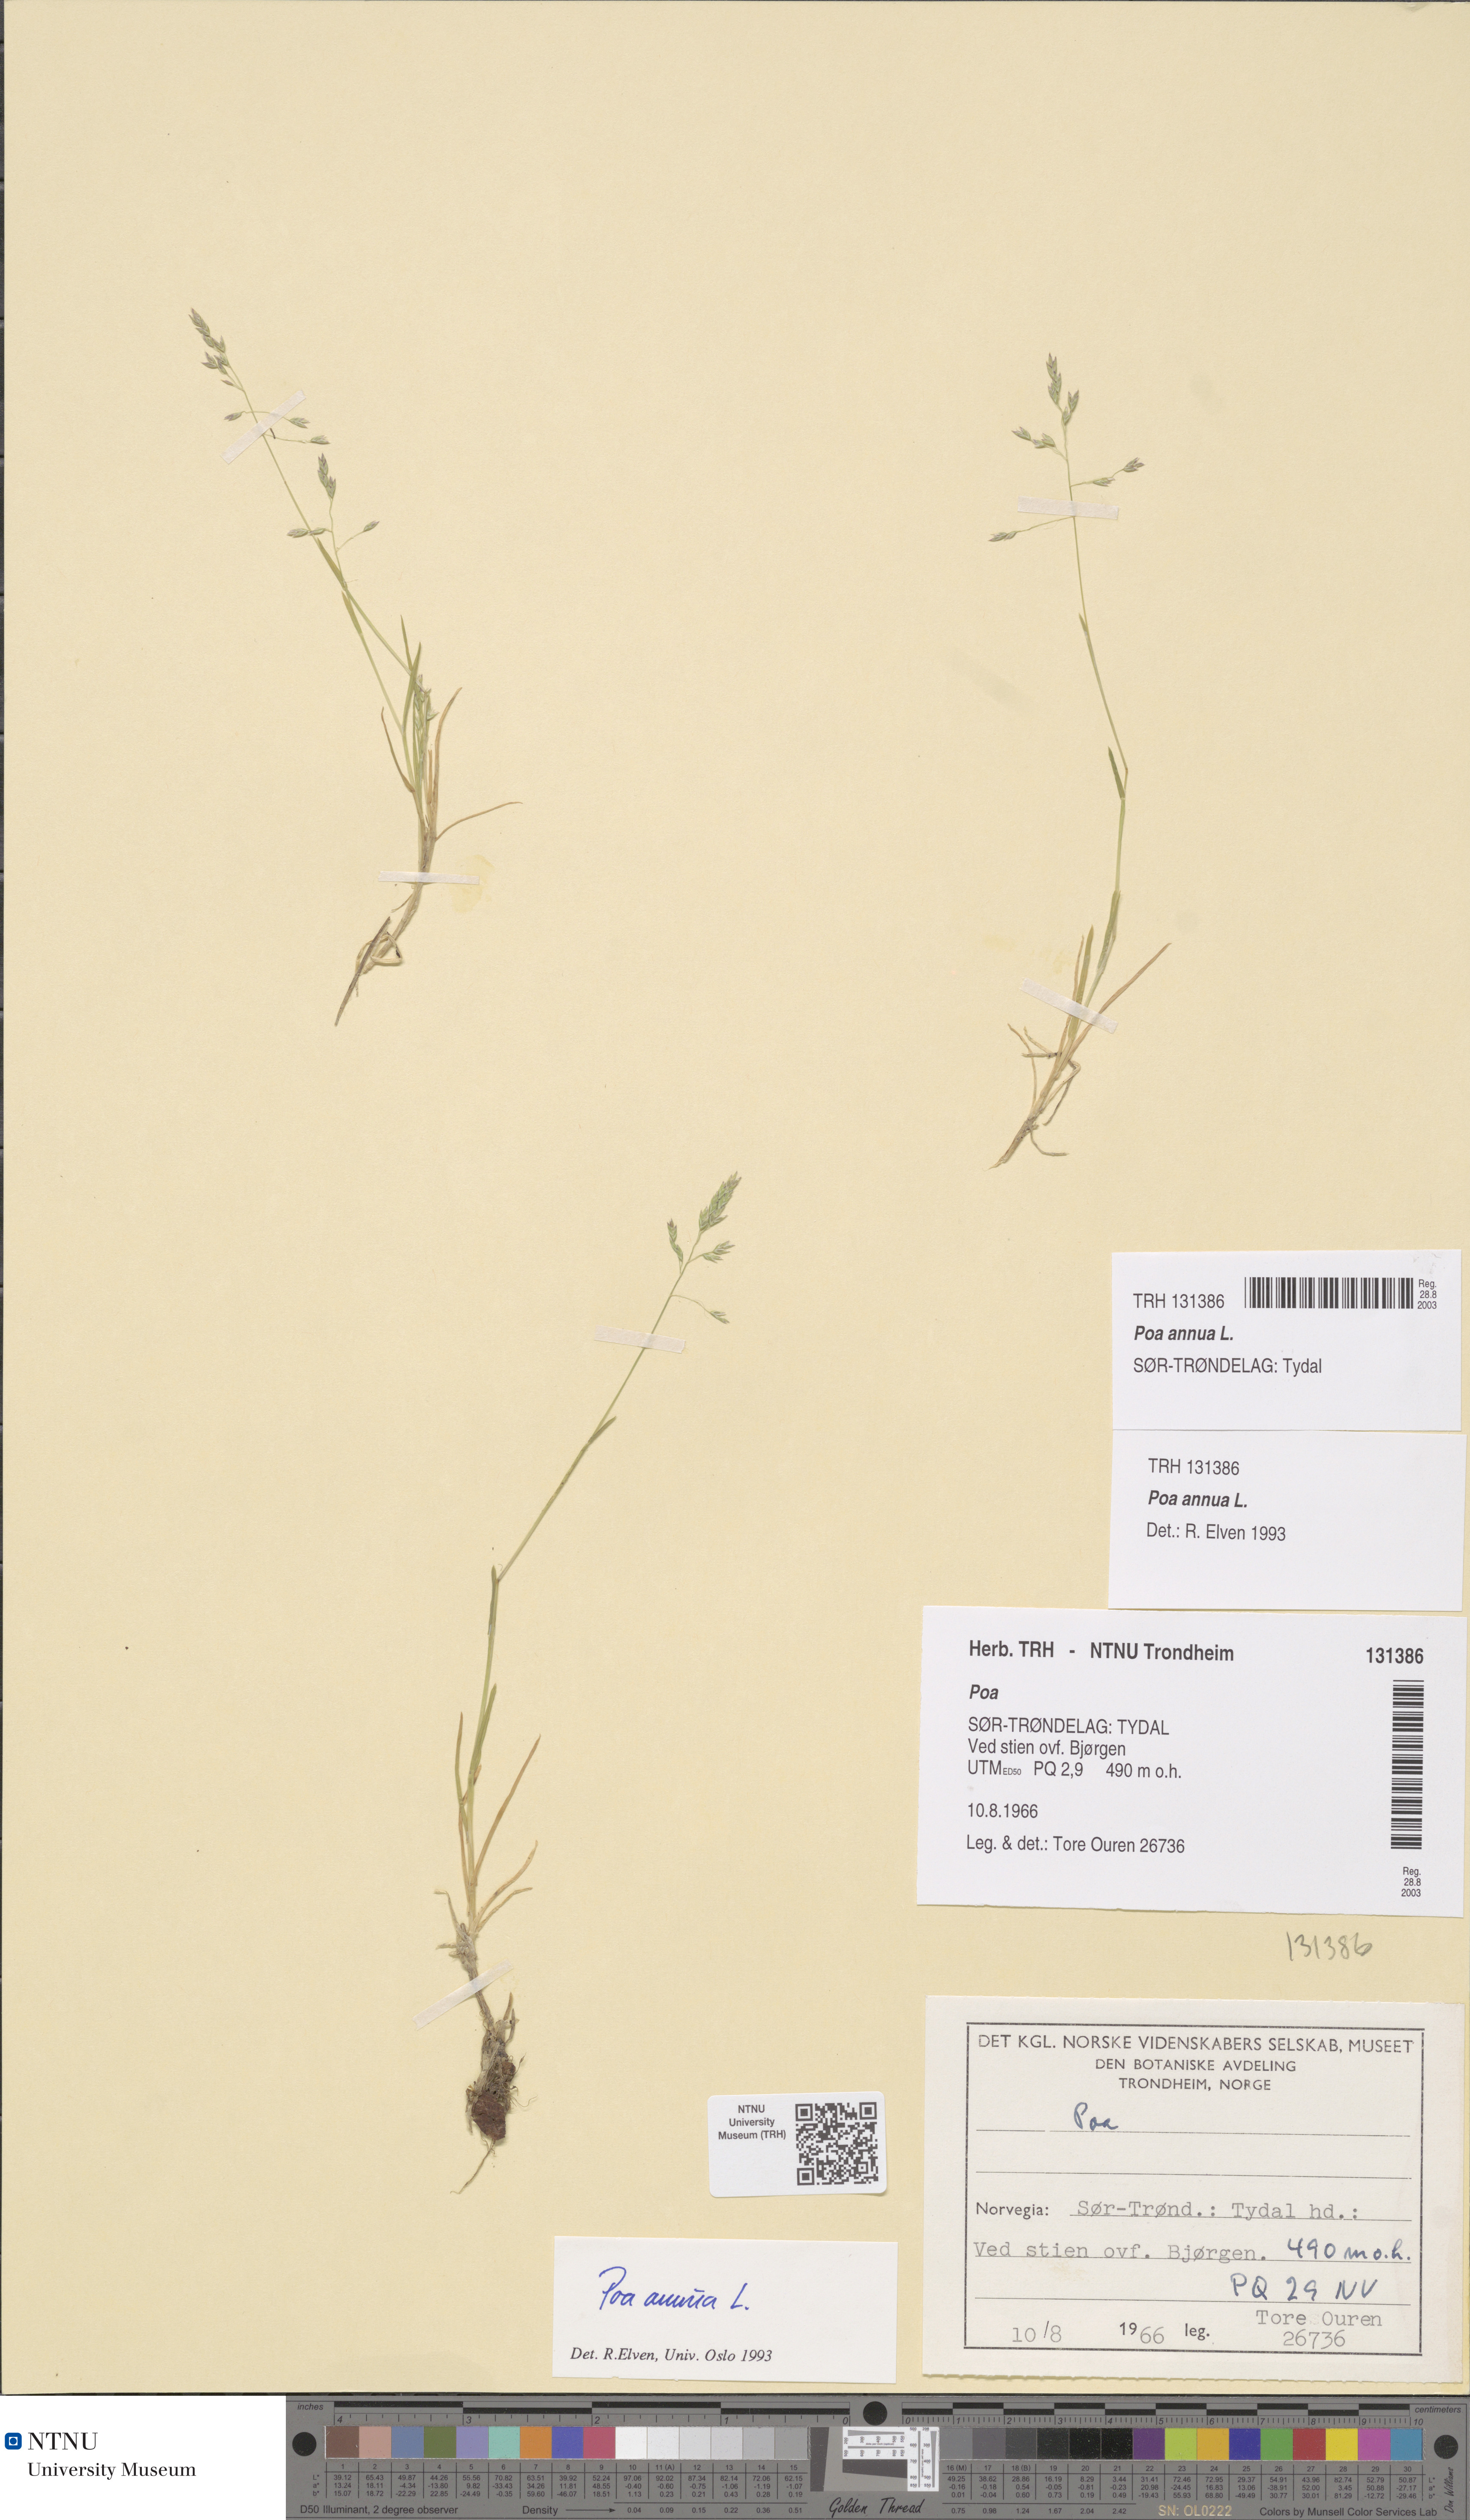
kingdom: Plantae
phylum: Tracheophyta
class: Liliopsida
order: Poales
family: Poaceae
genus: Poa
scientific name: Poa annua
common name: Annual bluegrass
